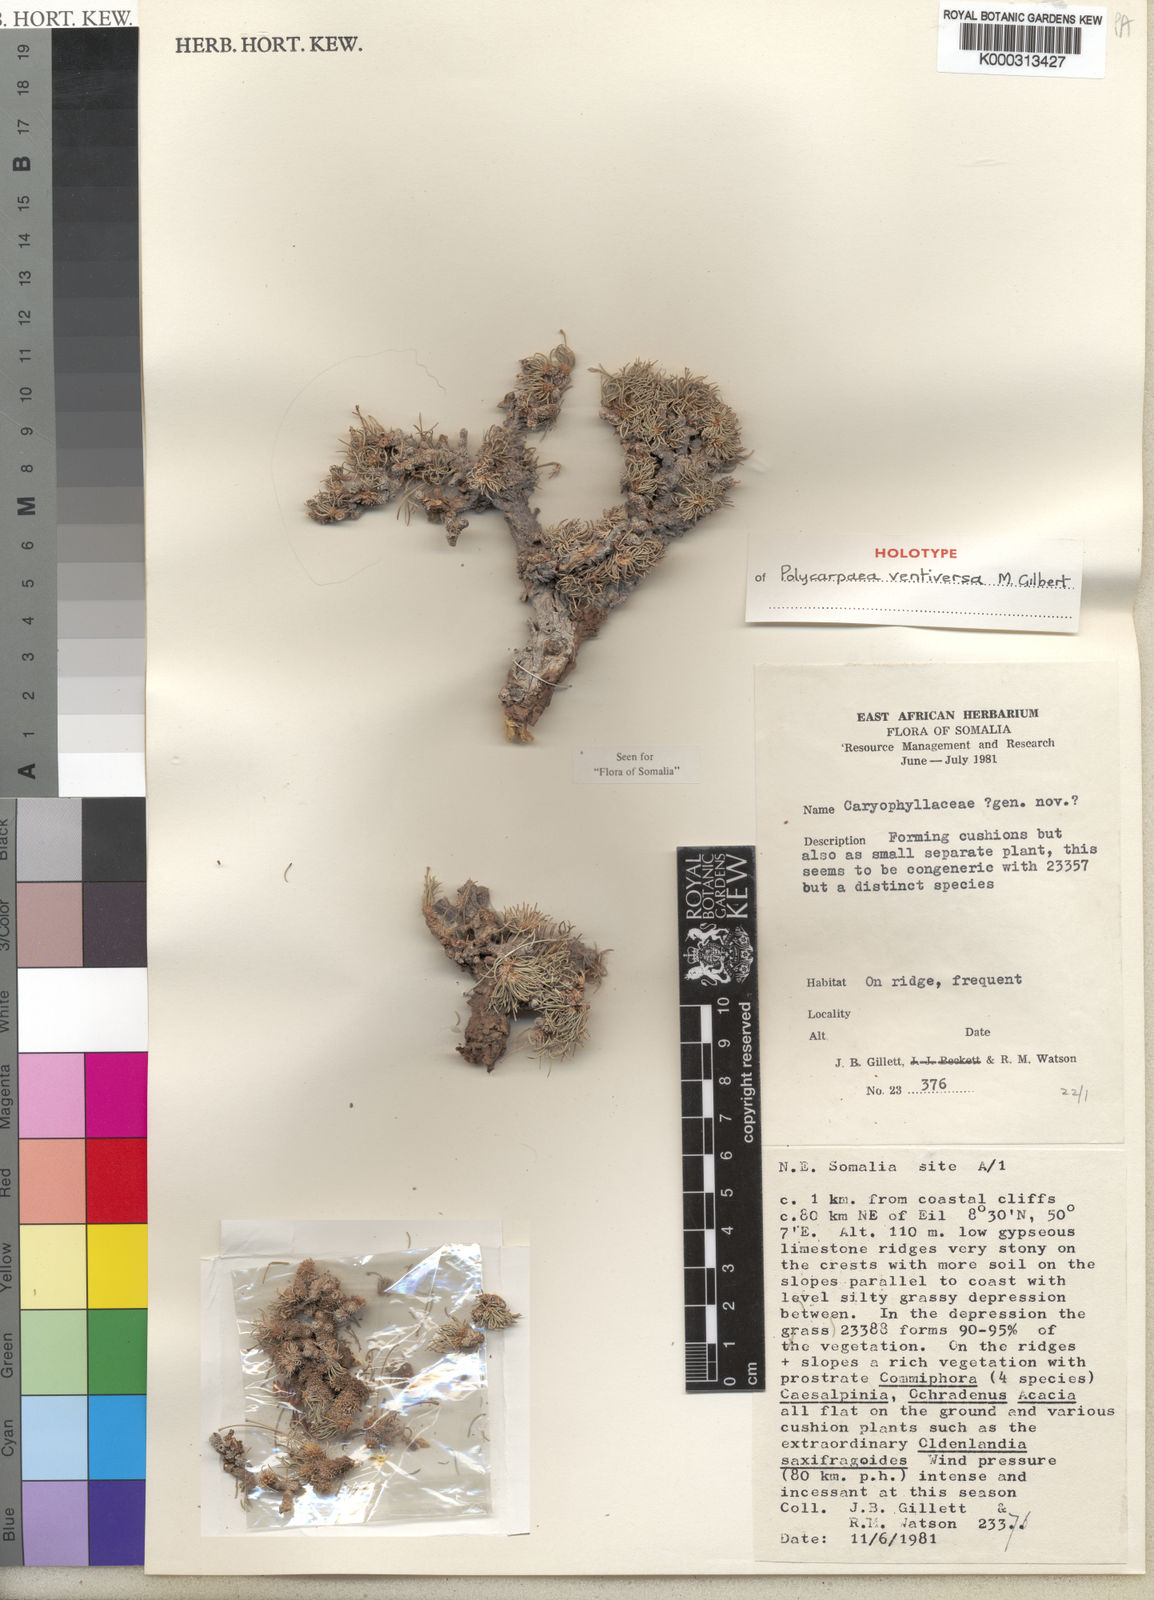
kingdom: Plantae
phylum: Tracheophyta
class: Magnoliopsida
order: Caryophyllales
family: Caryophyllaceae
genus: Polycarpaea
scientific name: Polycarpaea ventiversa
